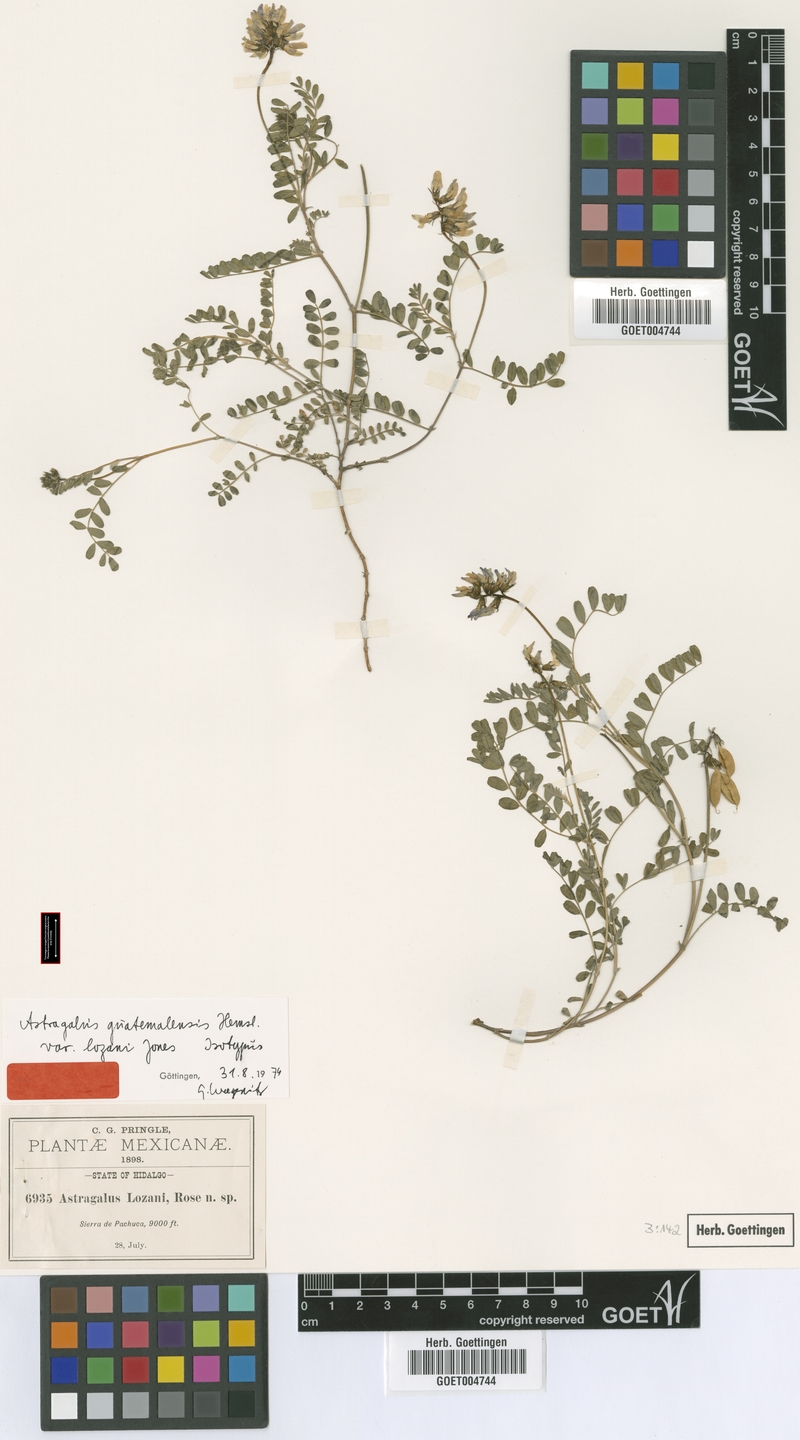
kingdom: Plantae
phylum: Tracheophyta
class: Magnoliopsida
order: Fabales
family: Fabaceae
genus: Astragalus
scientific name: Astragalus guatemalensis
